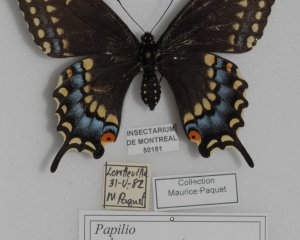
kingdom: Animalia
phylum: Arthropoda
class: Insecta
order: Lepidoptera
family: Papilionidae
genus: Papilio
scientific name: Papilio polyxenes
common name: Black Swallowtail
